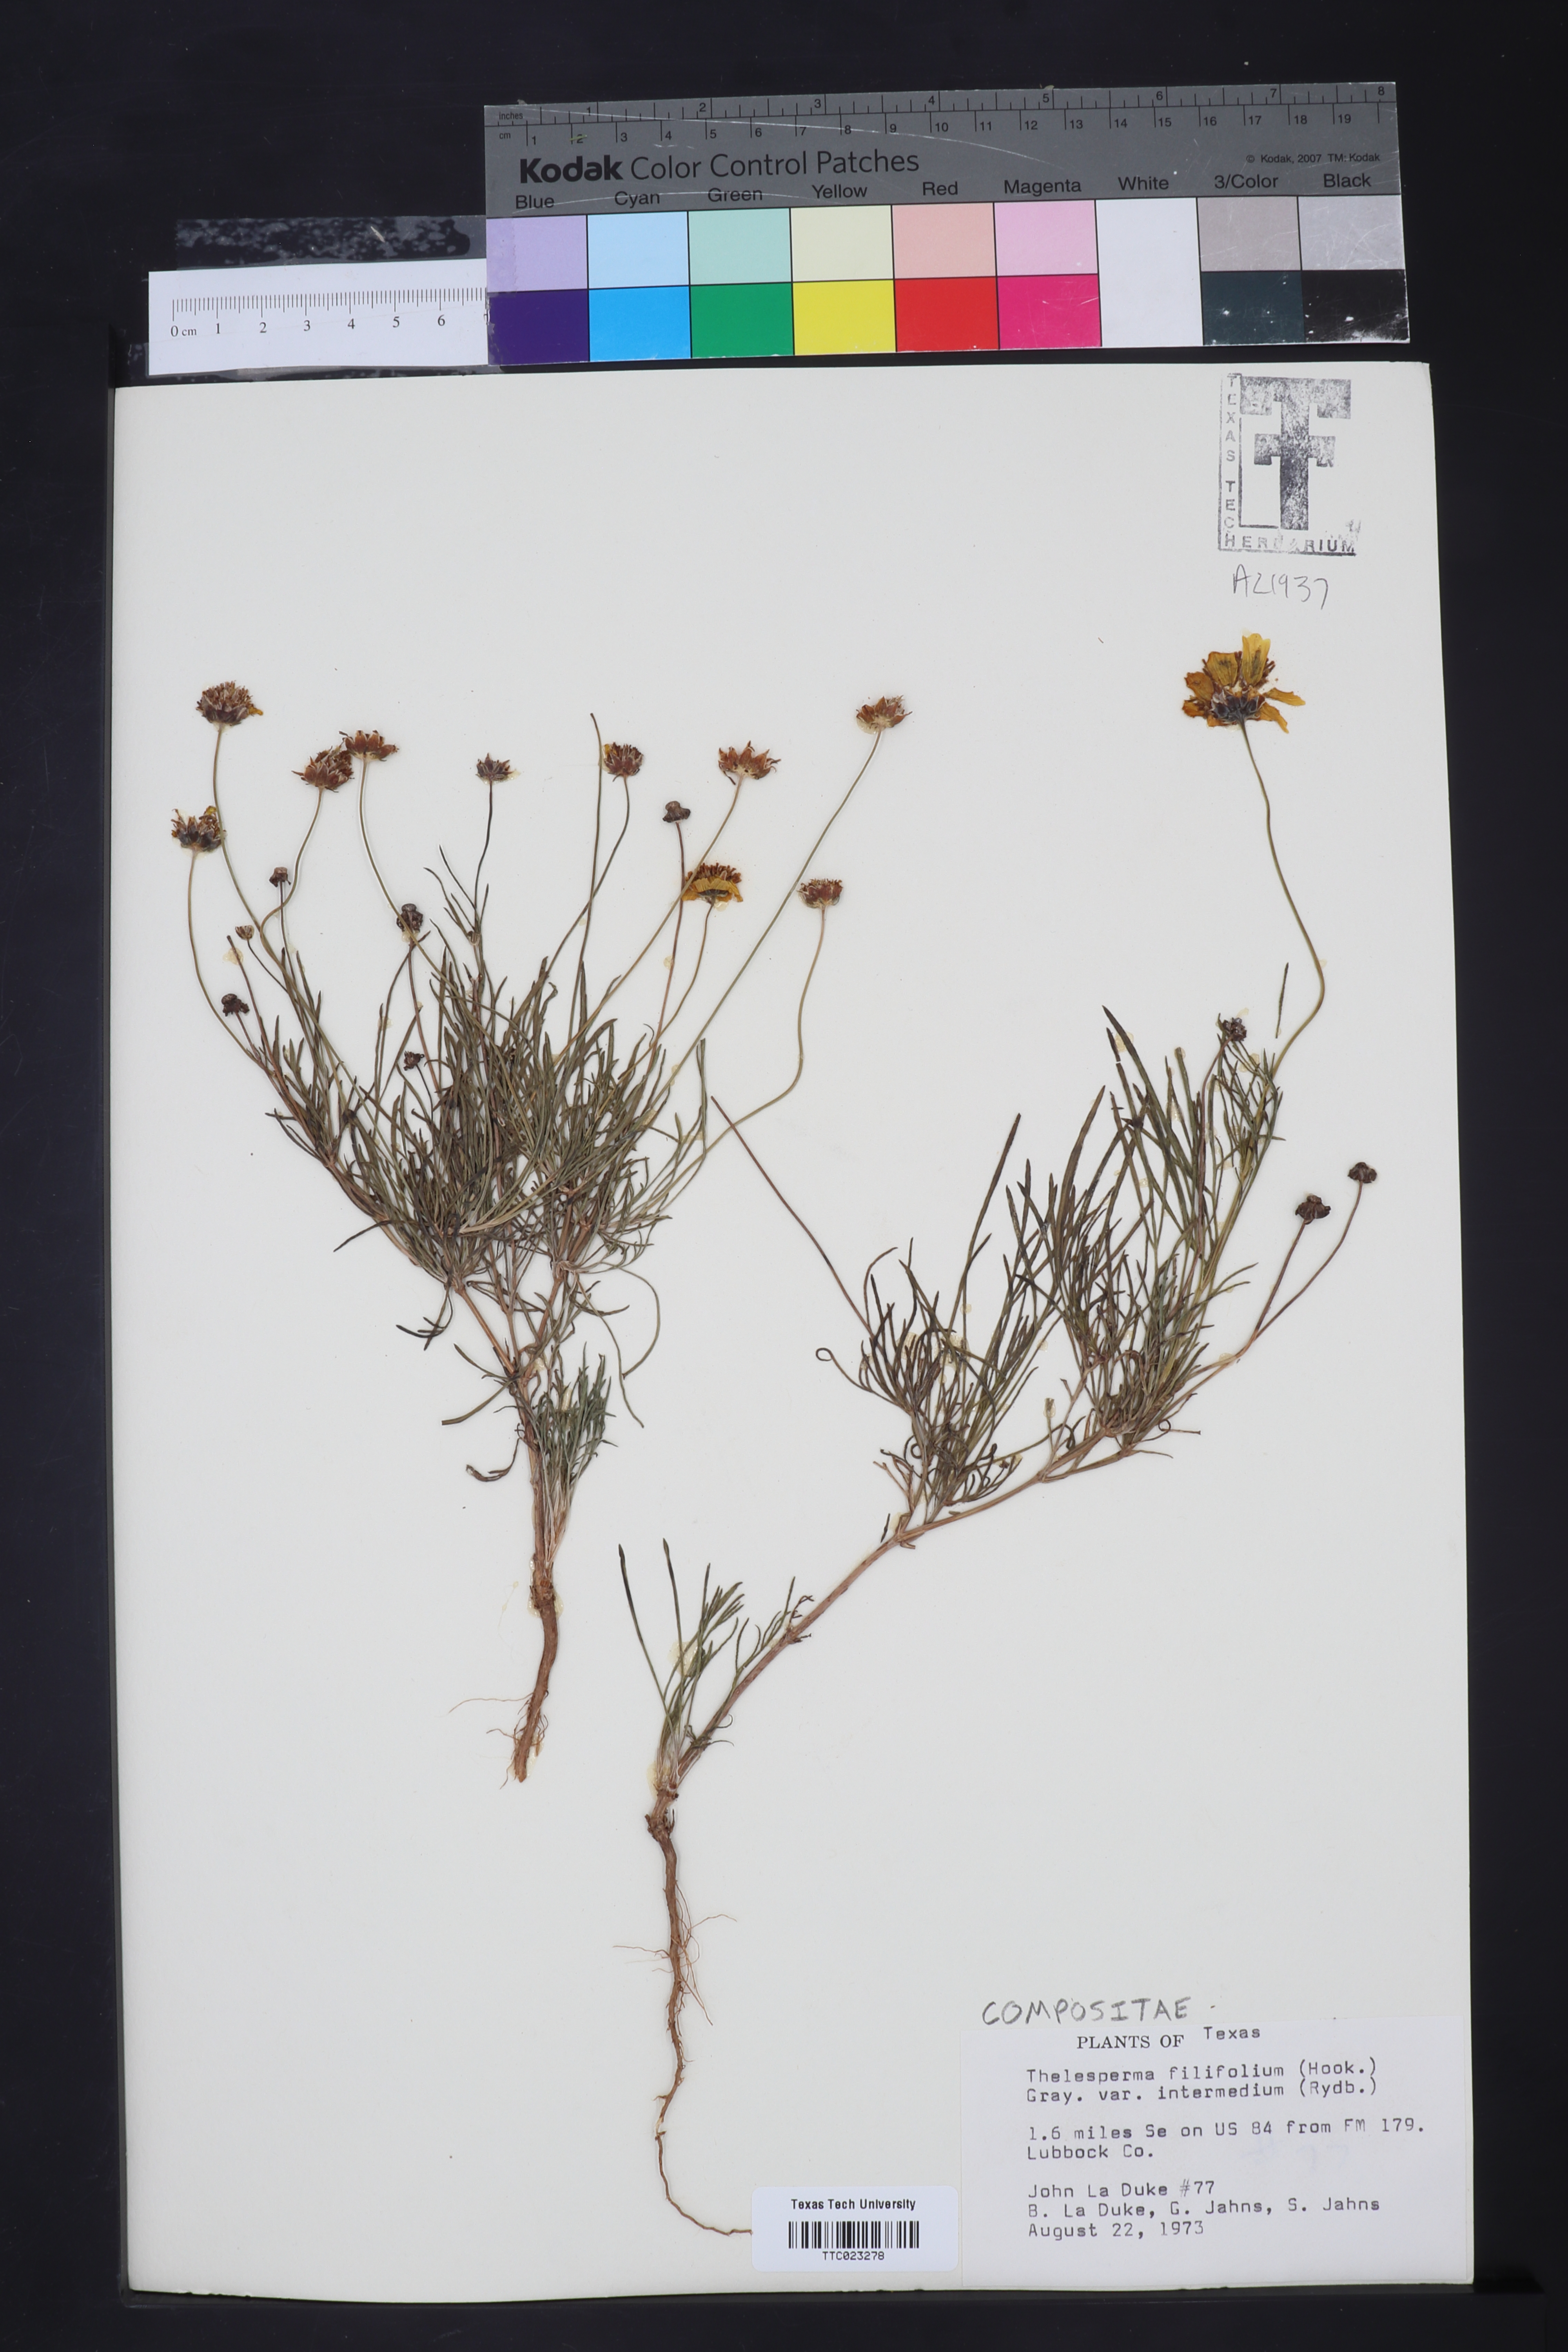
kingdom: Plantae
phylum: Tracheophyta
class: Magnoliopsida
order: Asterales
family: Asteraceae
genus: Thelesperma
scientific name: Thelesperma filifolium
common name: Stiff greenthread
